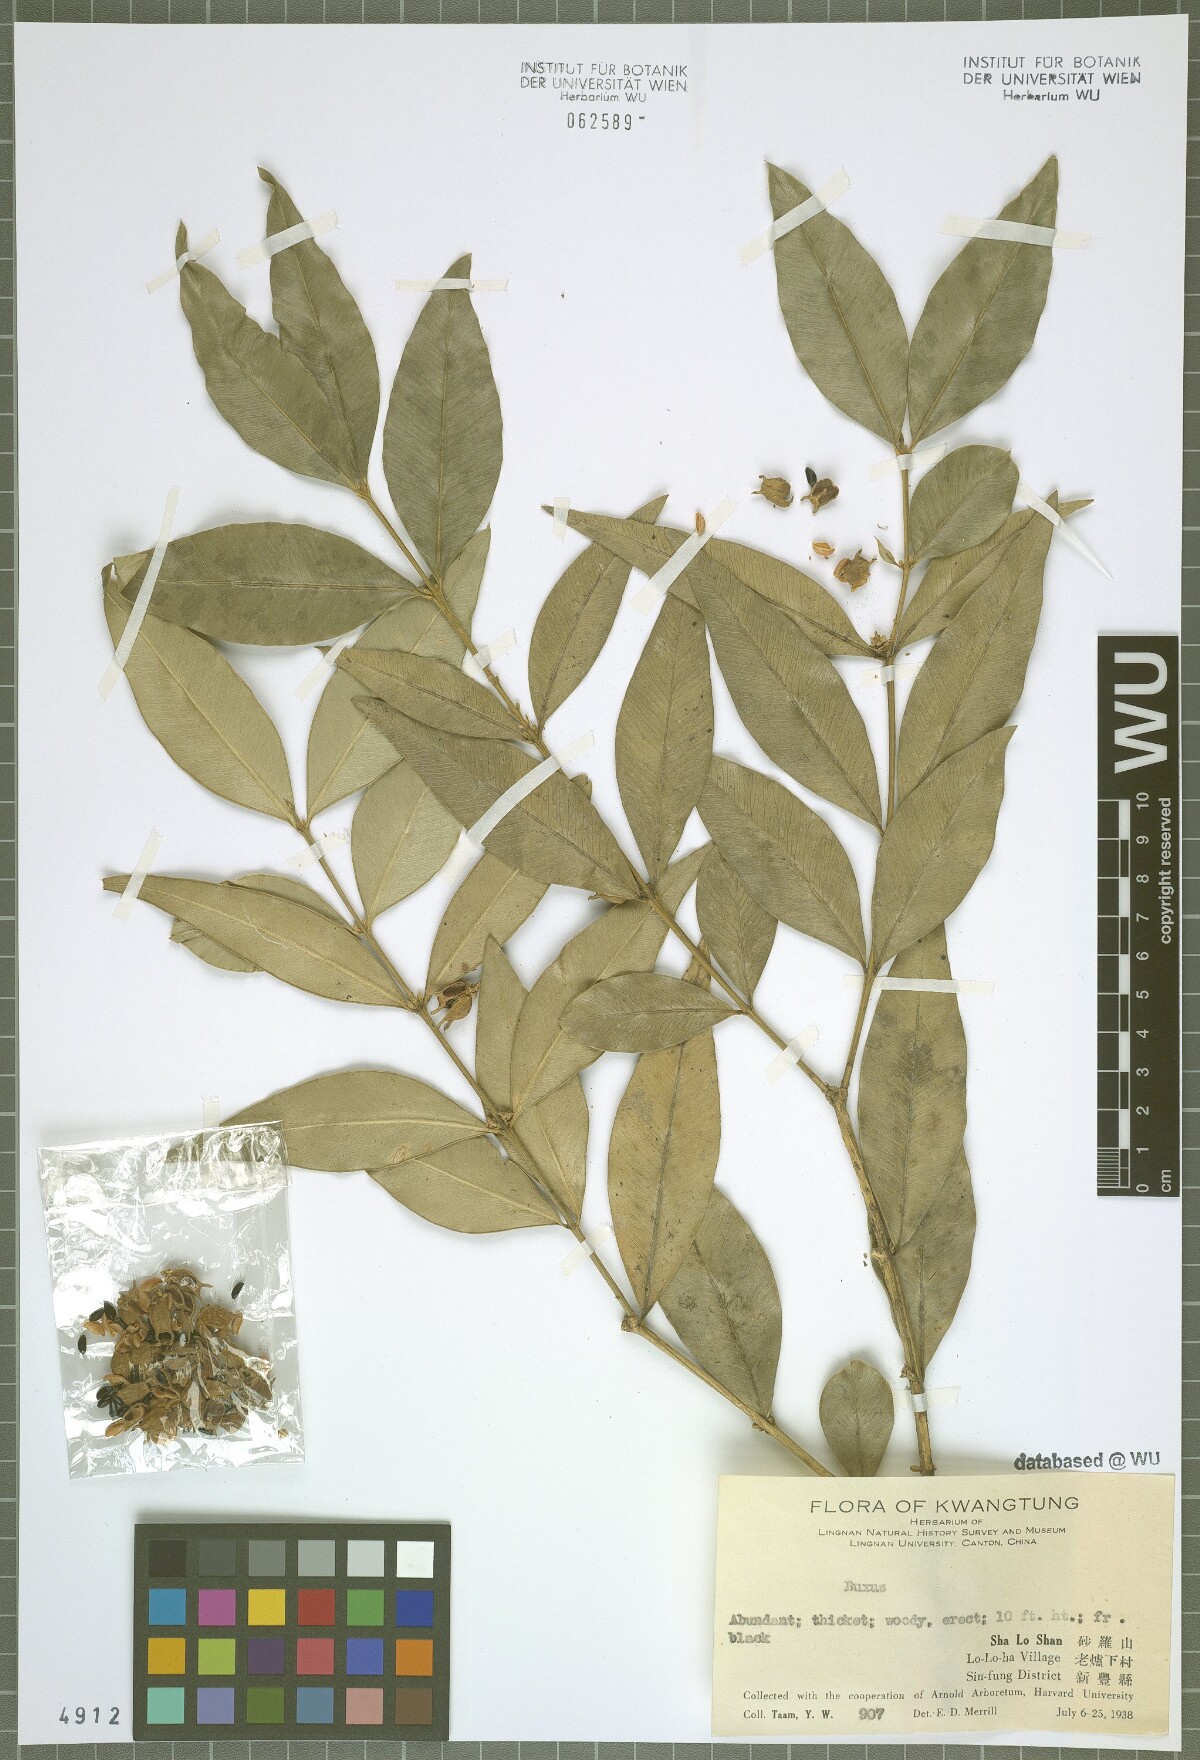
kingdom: Plantae
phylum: Tracheophyta
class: Magnoliopsida
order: Buxales
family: Buxaceae
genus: Buxus
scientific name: Buxus
